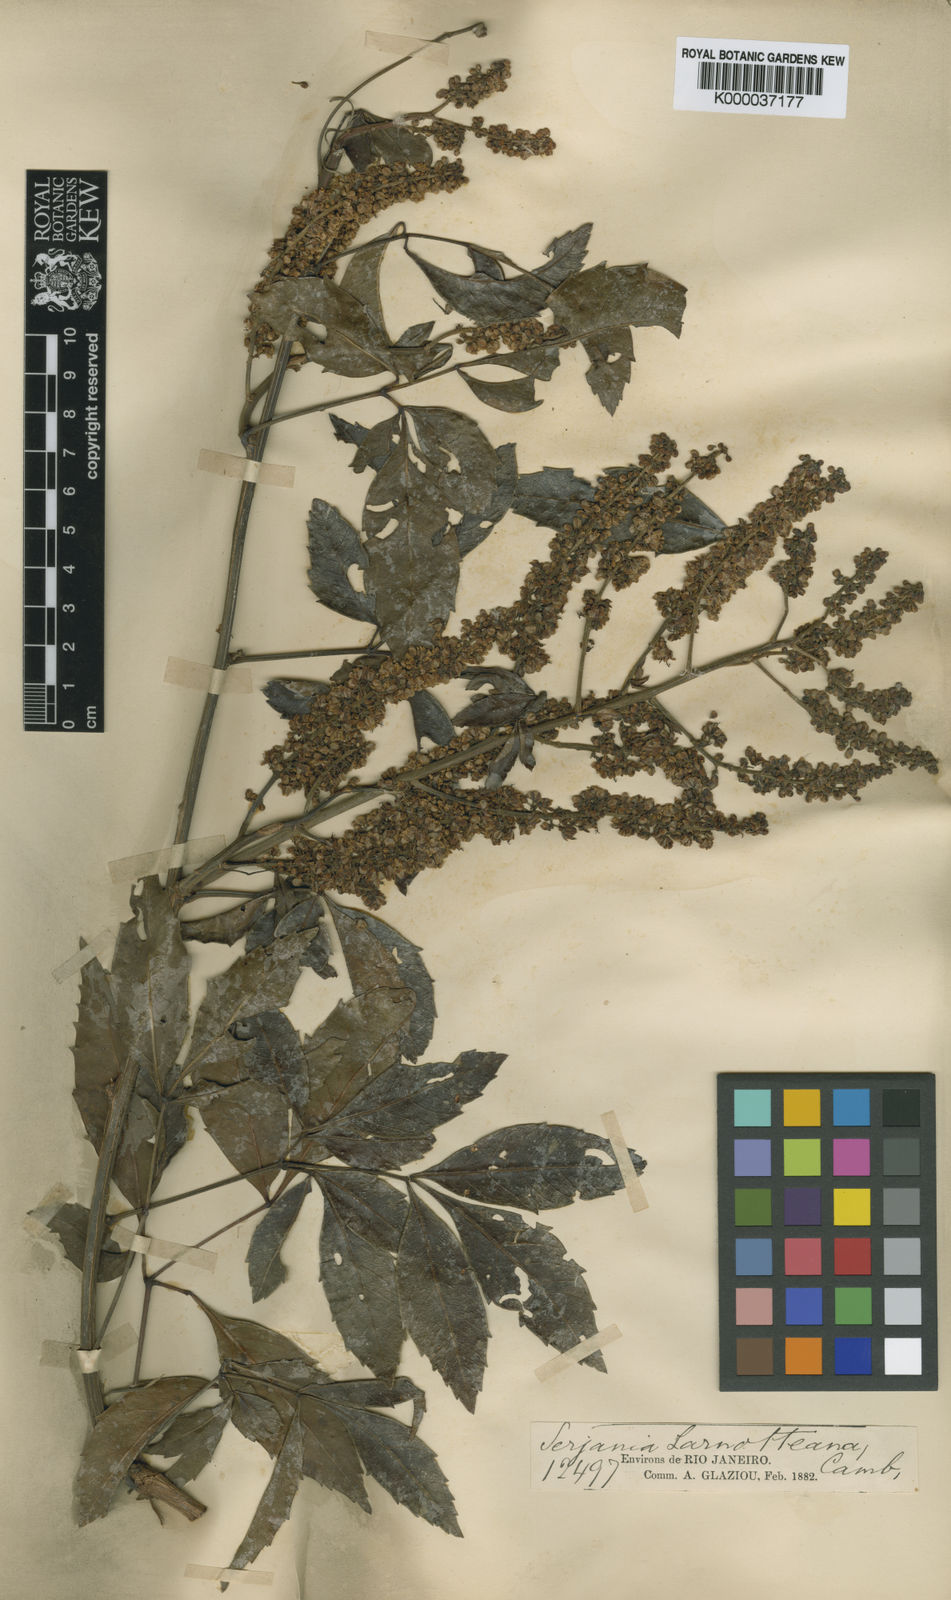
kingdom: Plantae
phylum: Tracheophyta
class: Magnoliopsida
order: Sapindales
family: Sapindaceae
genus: Serjania
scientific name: Serjania laruotteana
